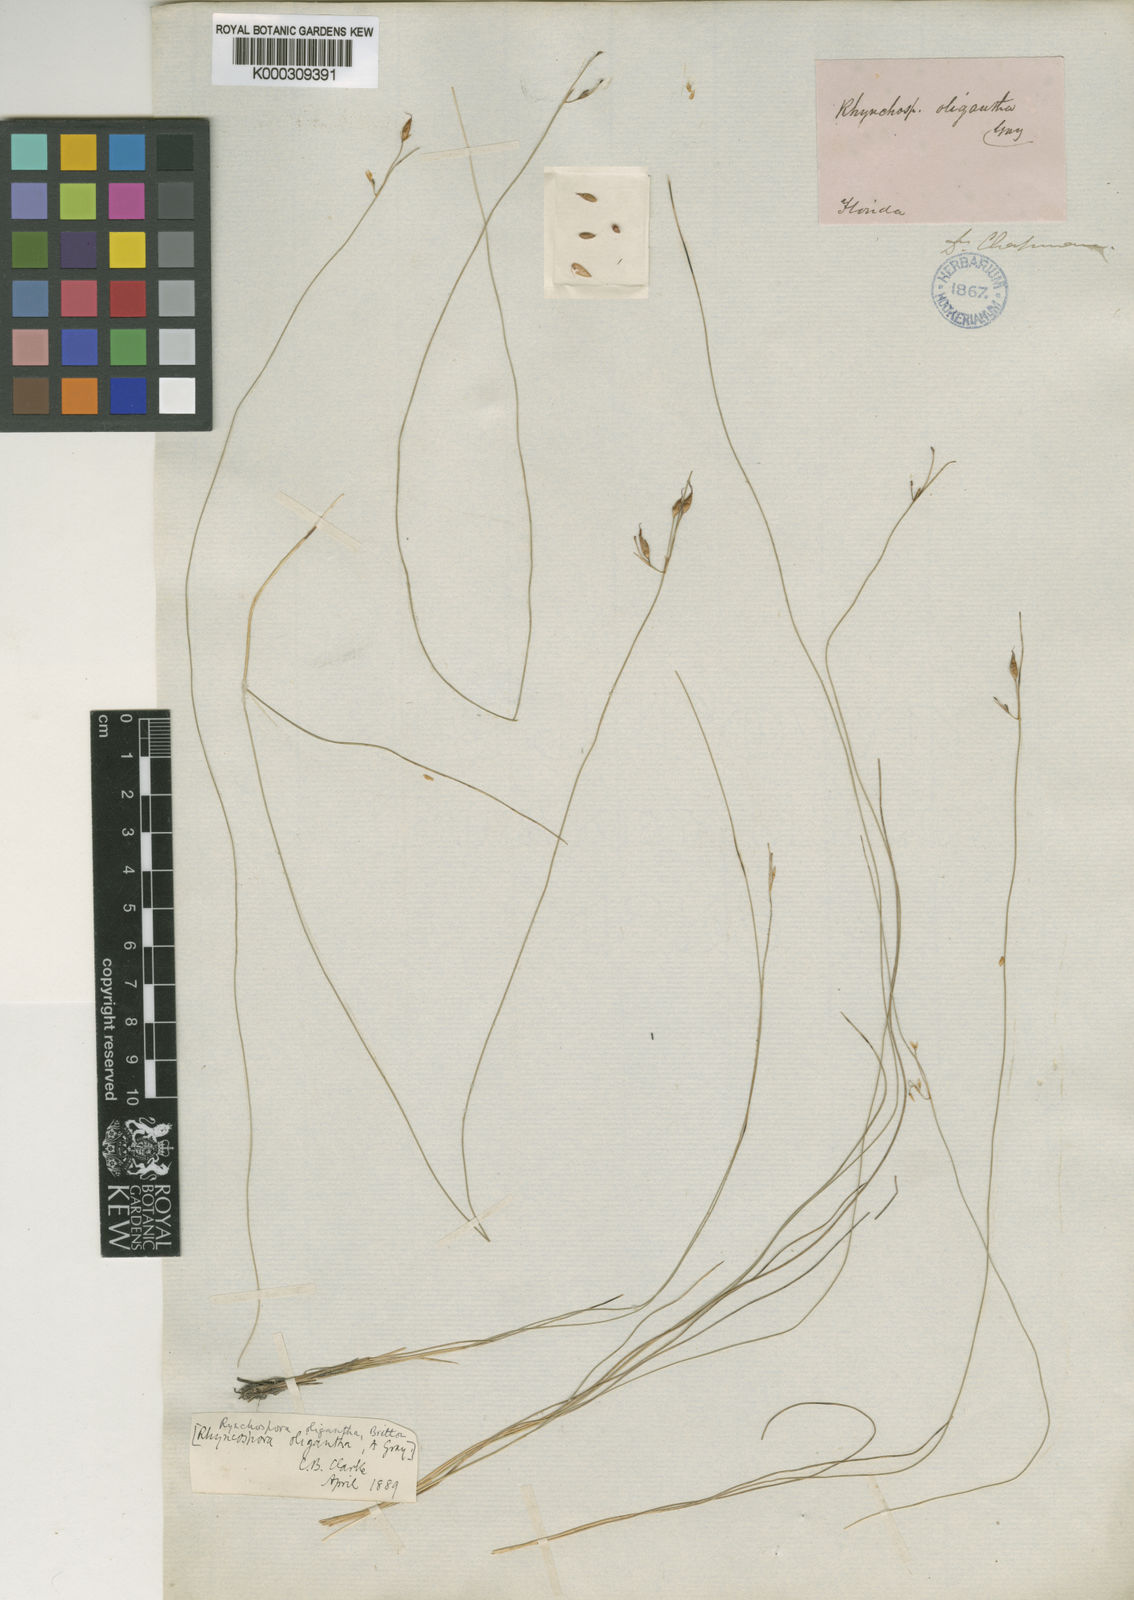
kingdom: Plantae
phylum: Tracheophyta
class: Liliopsida
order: Poales
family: Cyperaceae
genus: Rhynchospora
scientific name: Rhynchospora oligantha
